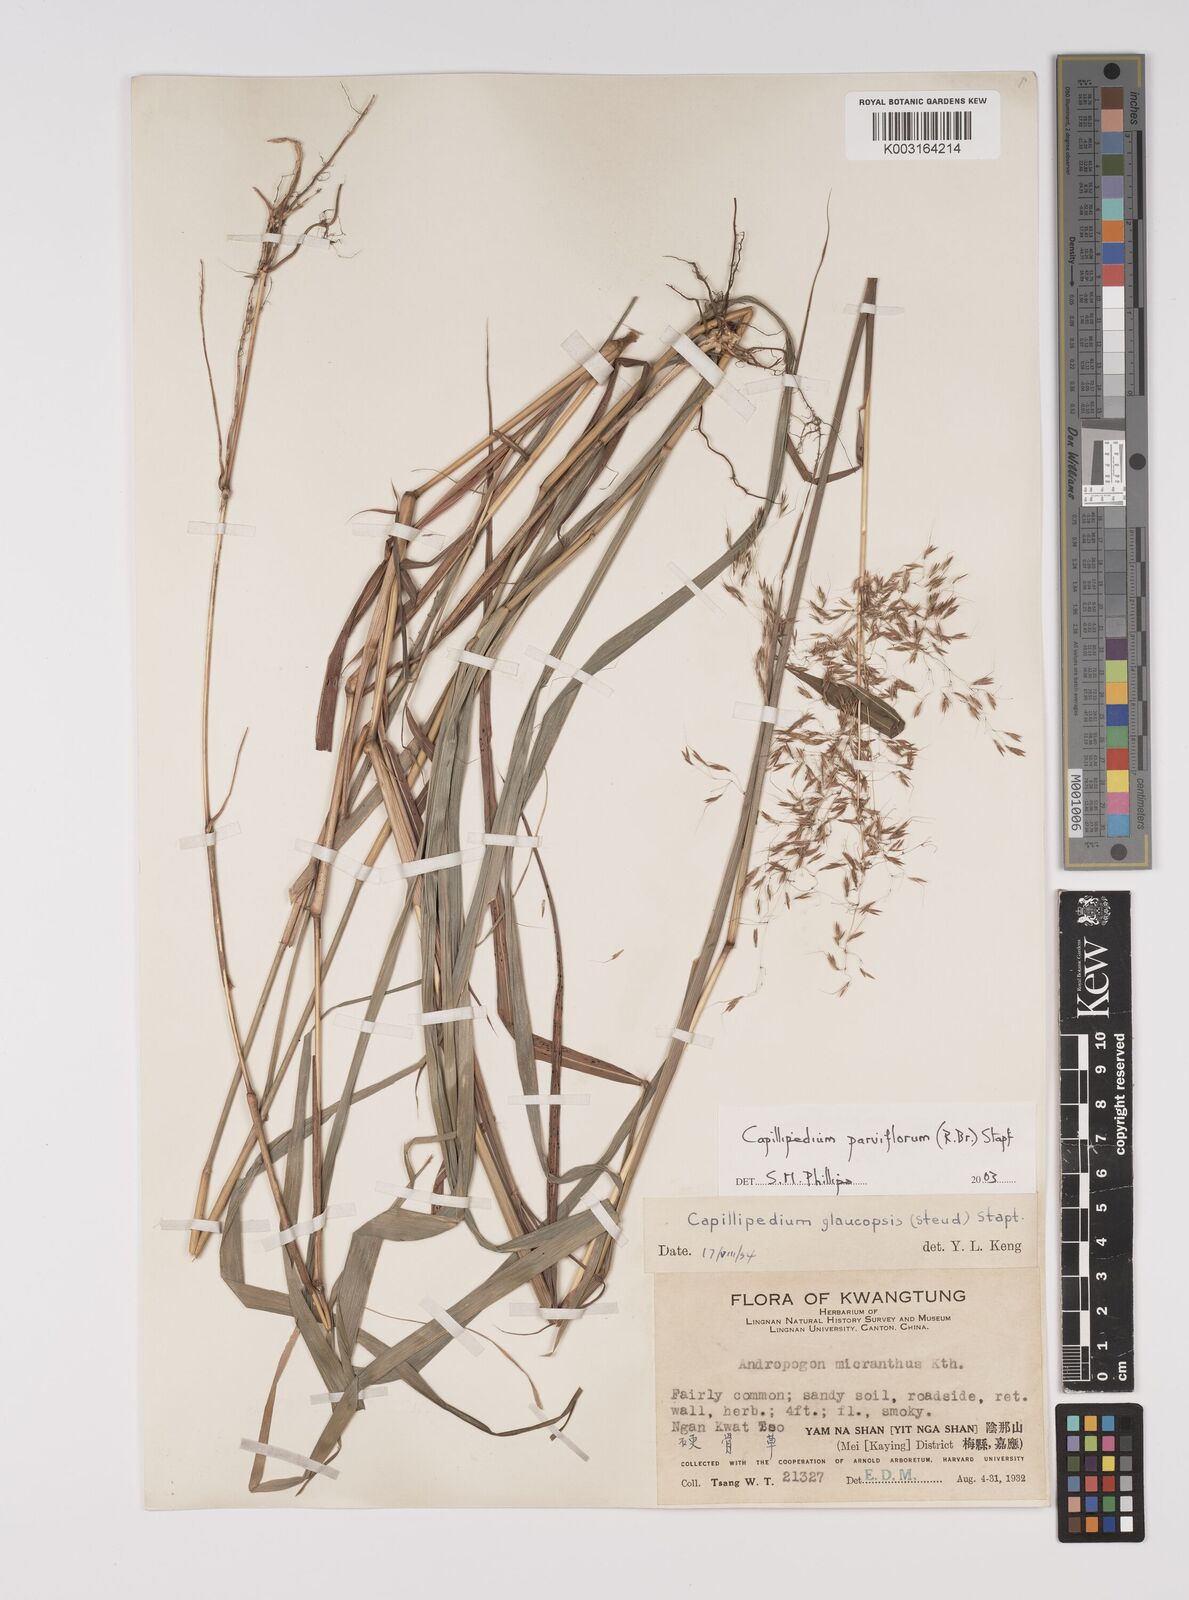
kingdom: Plantae
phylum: Tracheophyta
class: Liliopsida
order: Poales
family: Poaceae
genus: Capillipedium
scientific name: Capillipedium parviflorum
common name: Golden-beard
